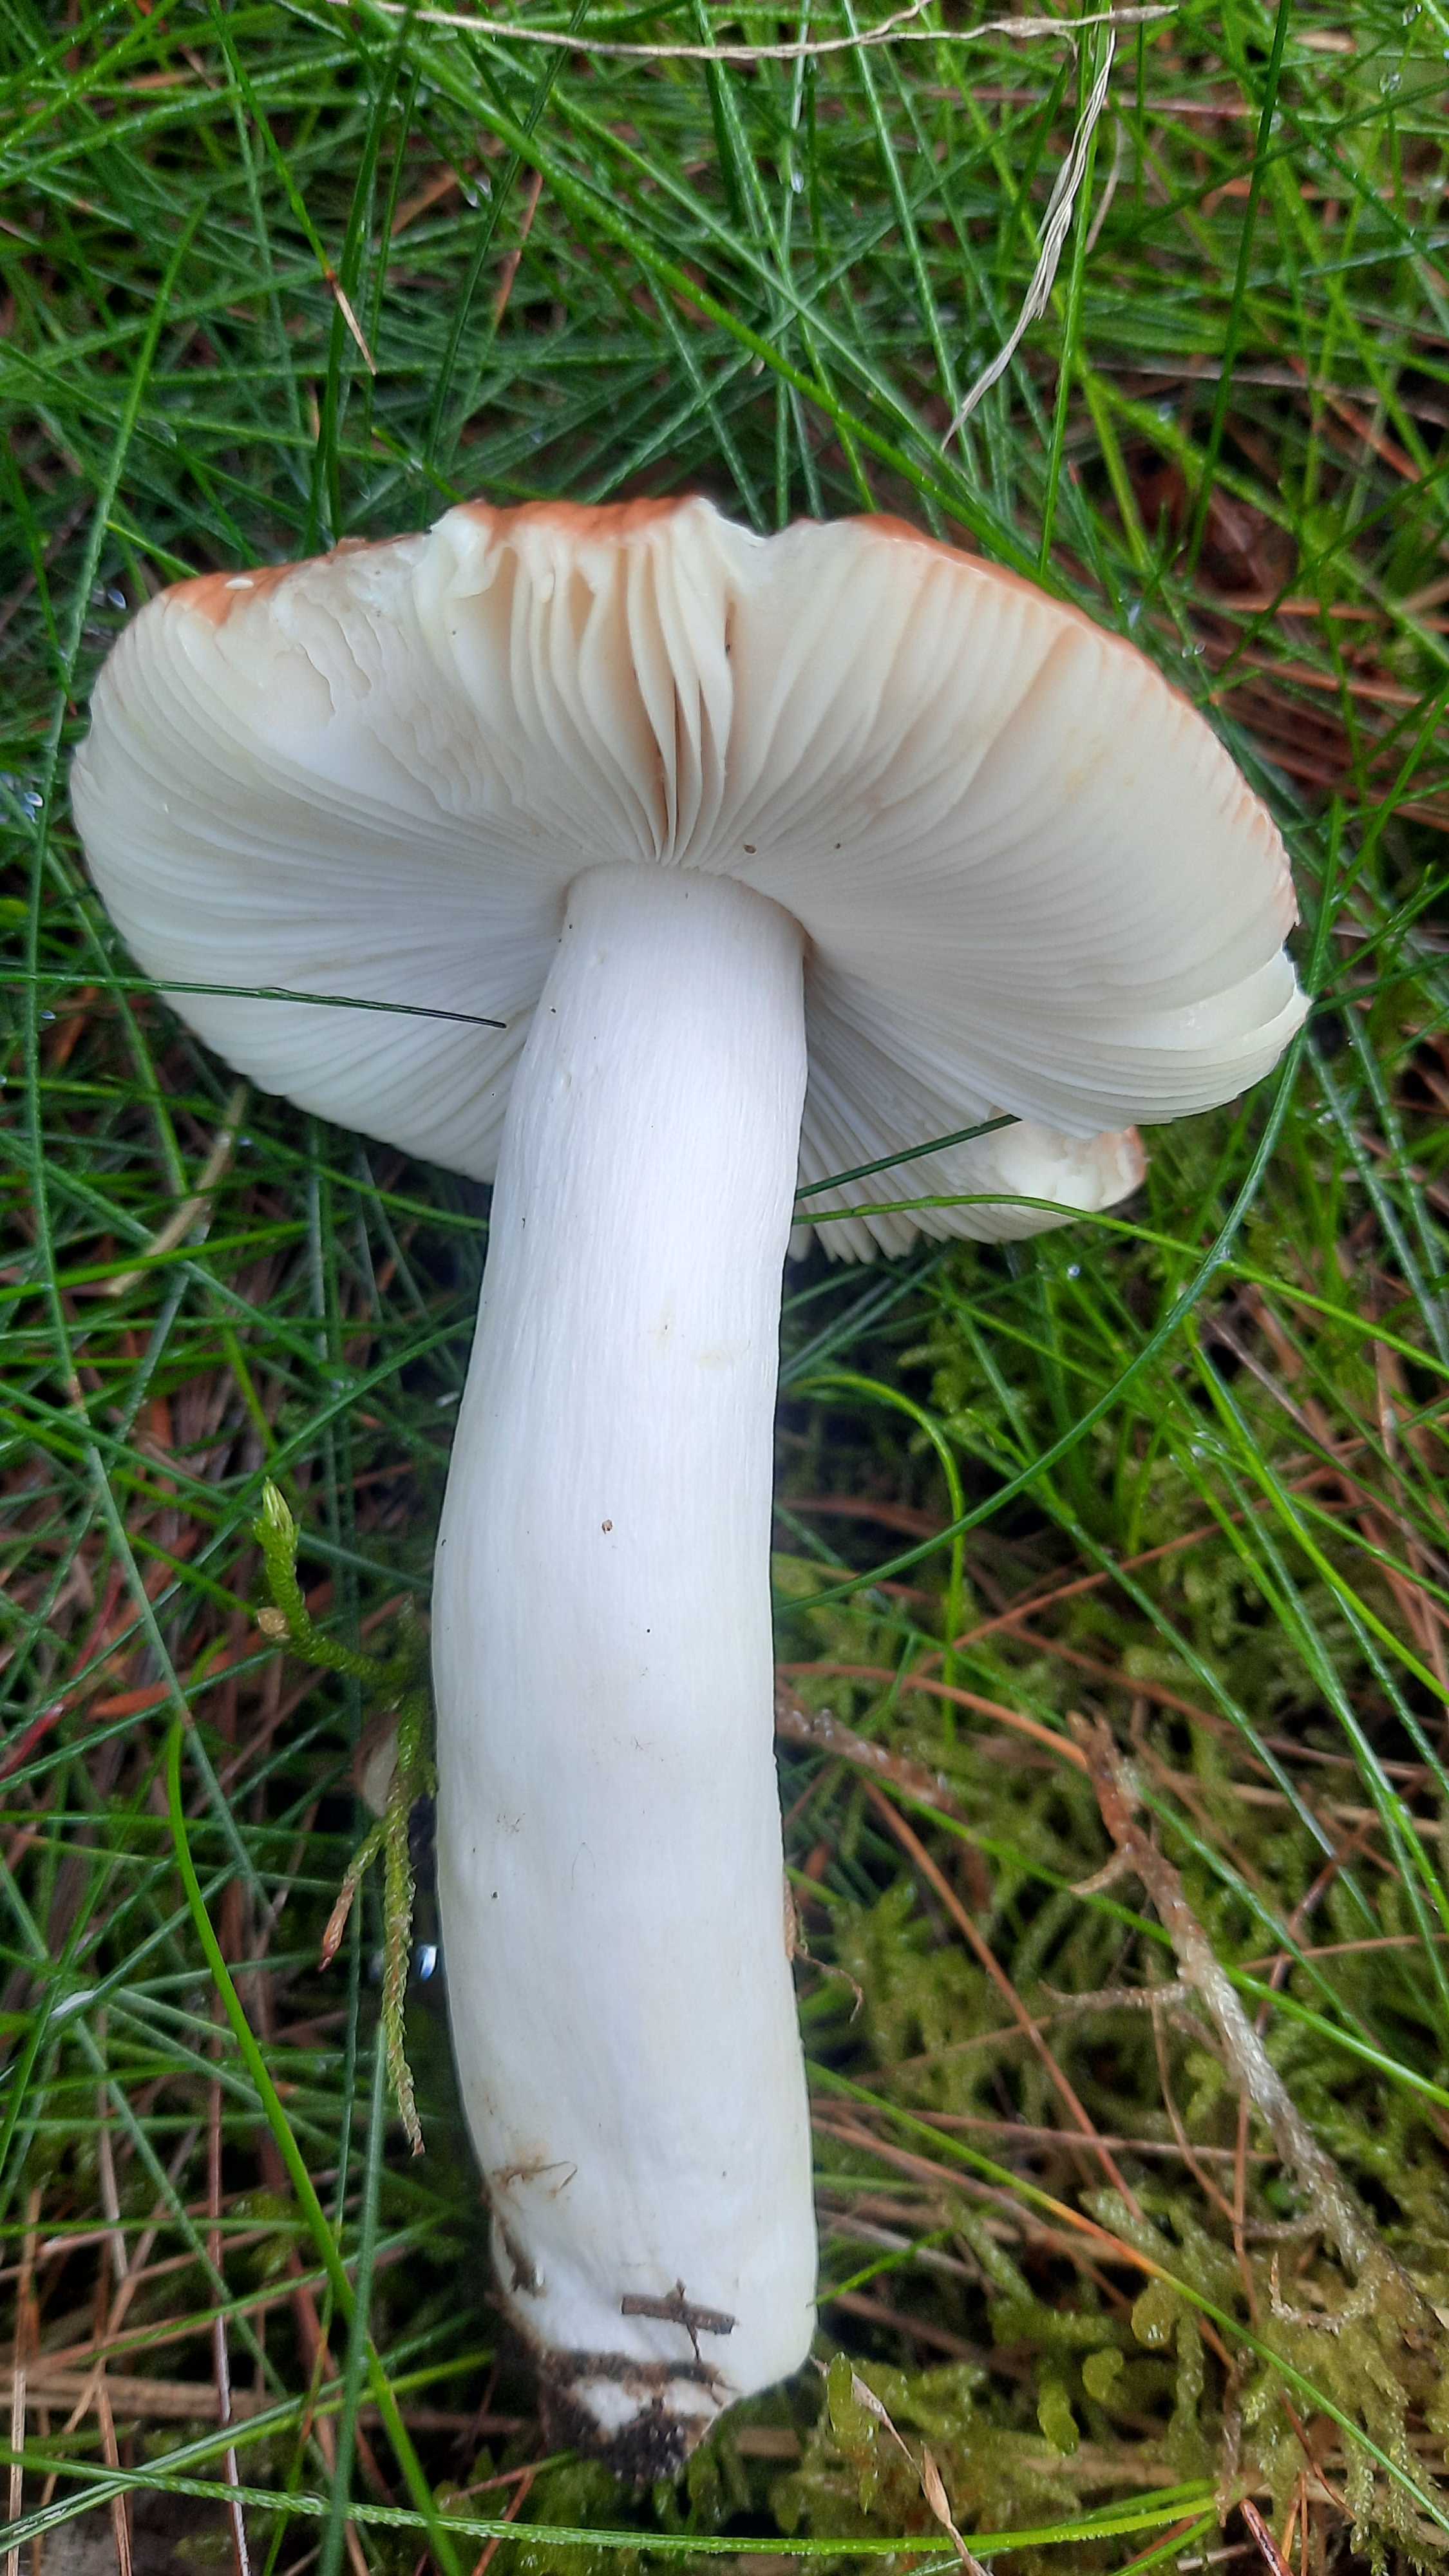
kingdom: Fungi
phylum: Basidiomycota
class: Agaricomycetes
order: Russulales
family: Russulaceae
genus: Russula
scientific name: Russula
